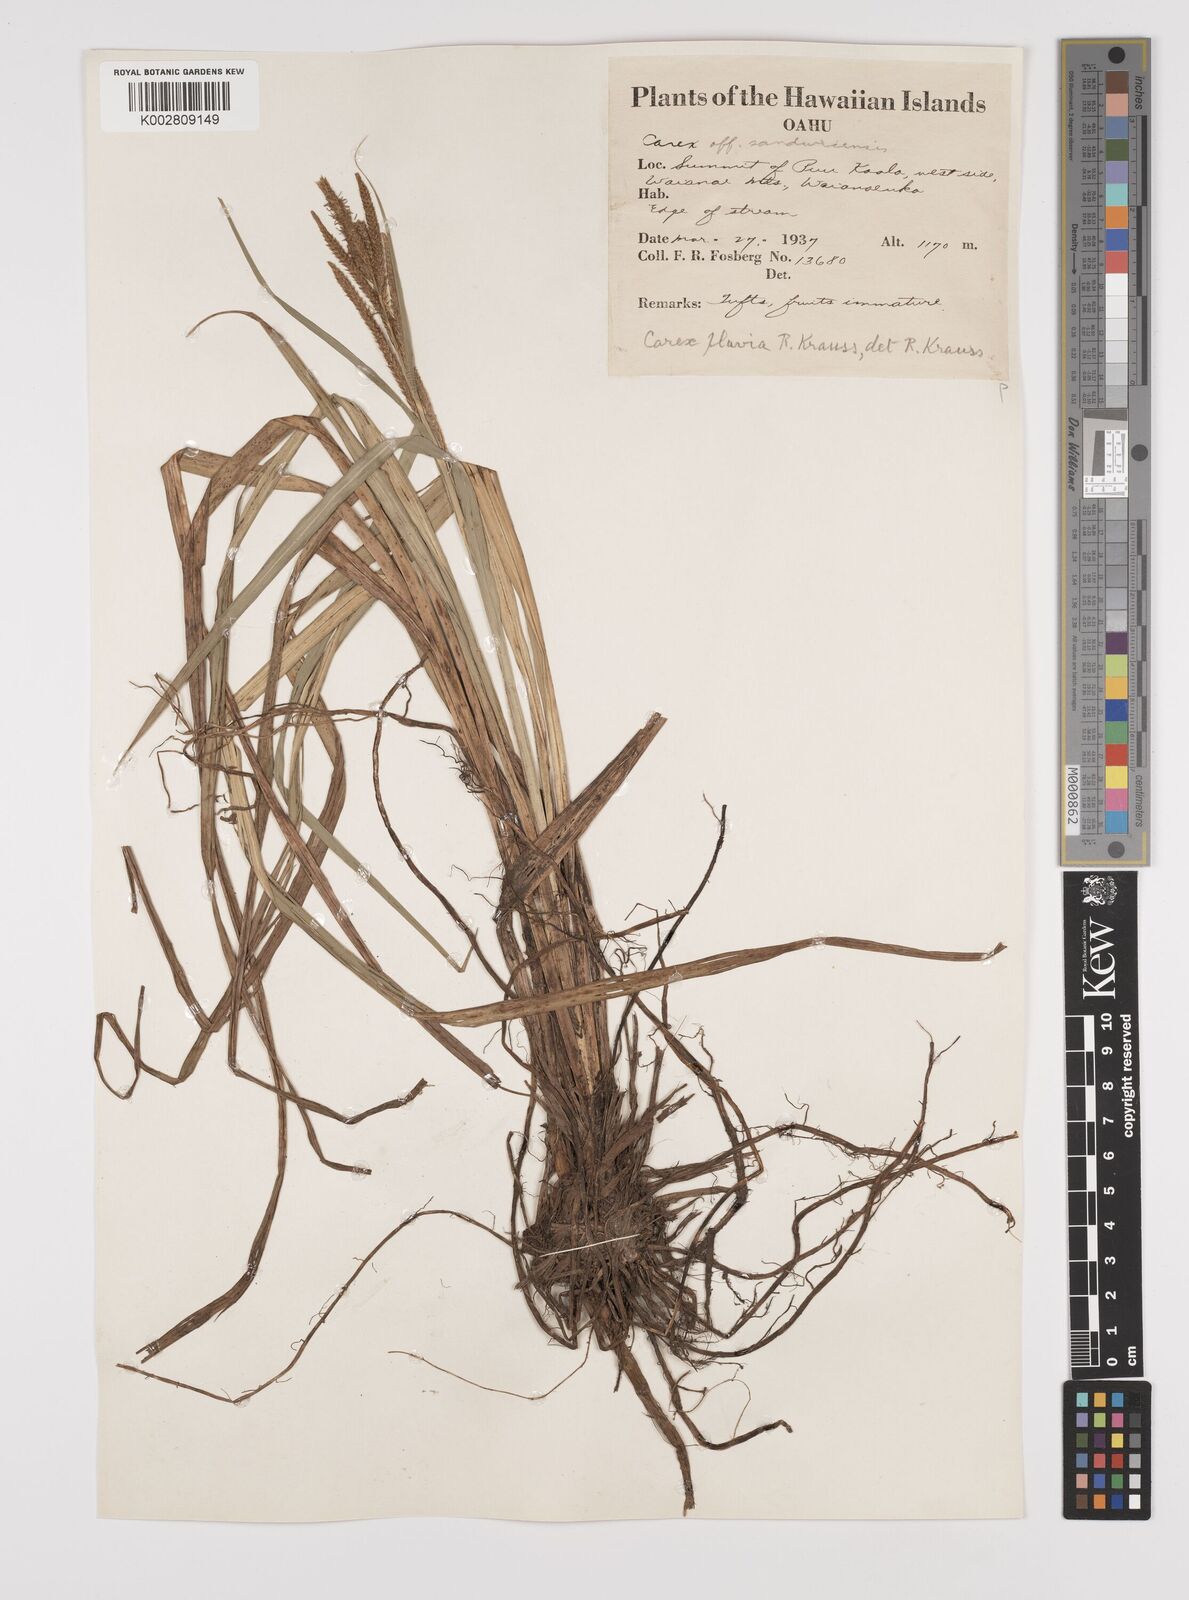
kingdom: Plantae
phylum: Tracheophyta
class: Liliopsida
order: Poales
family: Cyperaceae
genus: Carex
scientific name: Carex alligata
